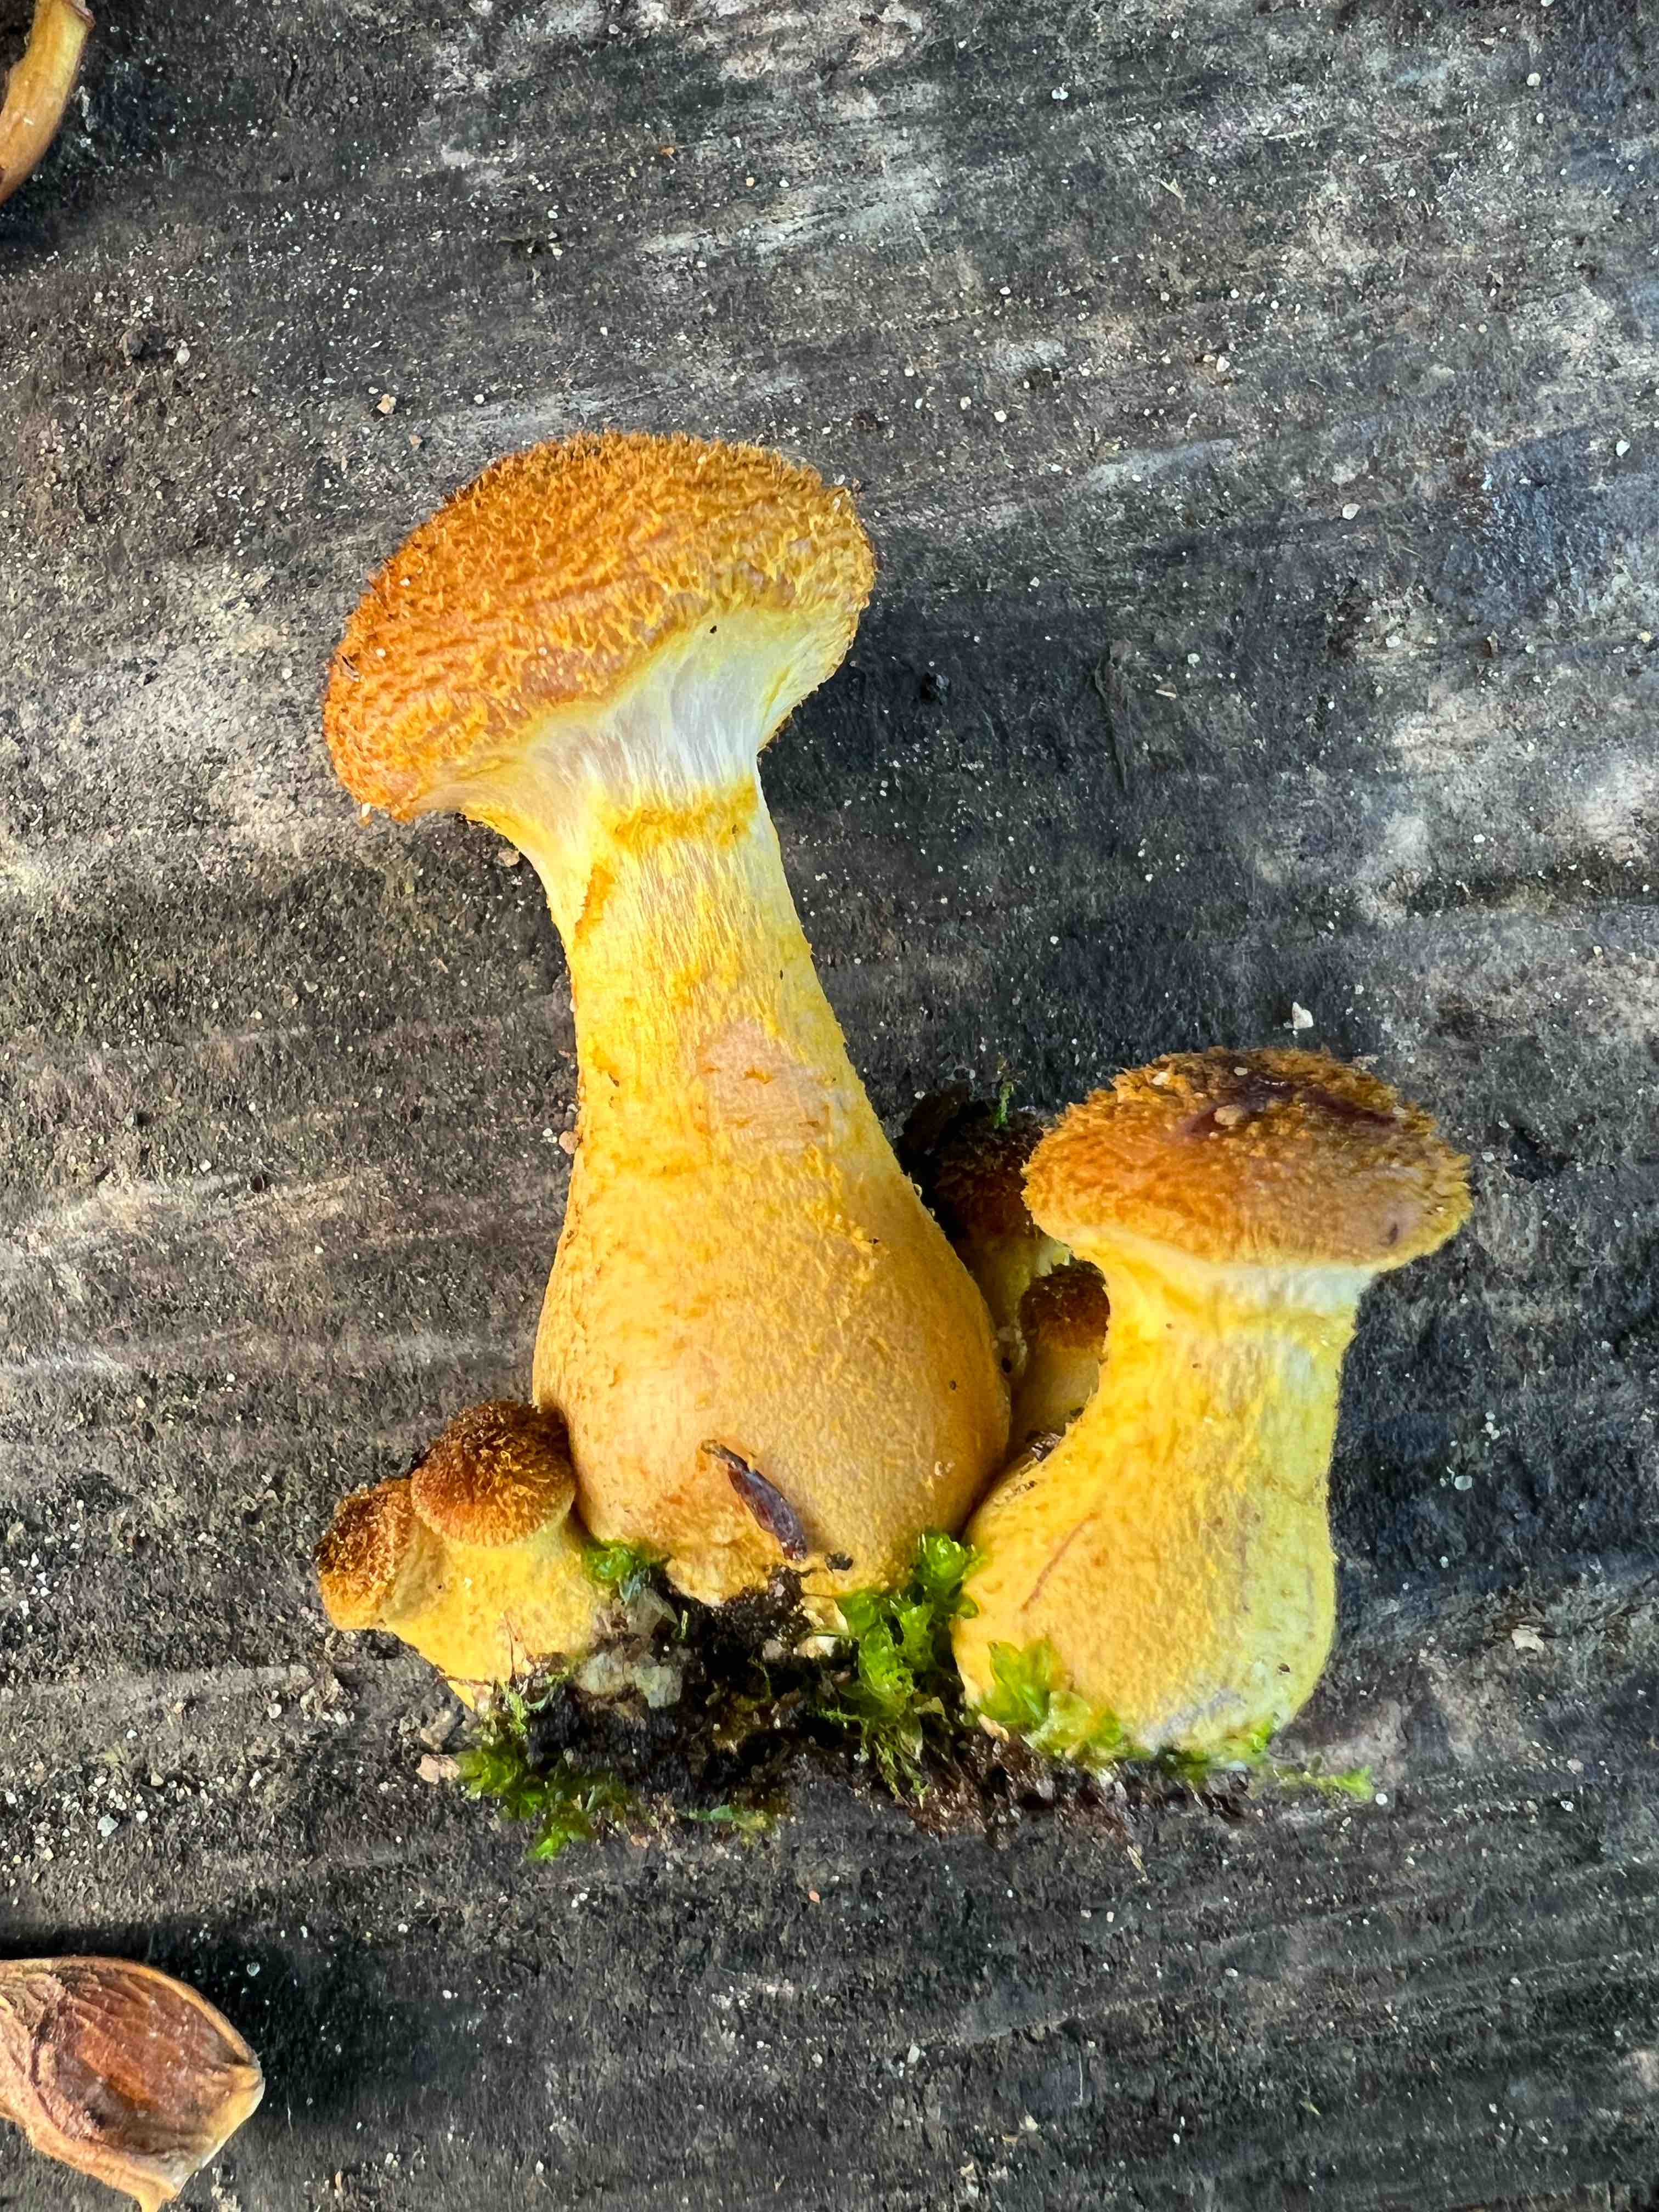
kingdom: Fungi
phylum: Basidiomycota
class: Agaricomycetes
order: Agaricales
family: Physalacriaceae
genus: Armillaria
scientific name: Armillaria lutea
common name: køllestokket honningsvamp
